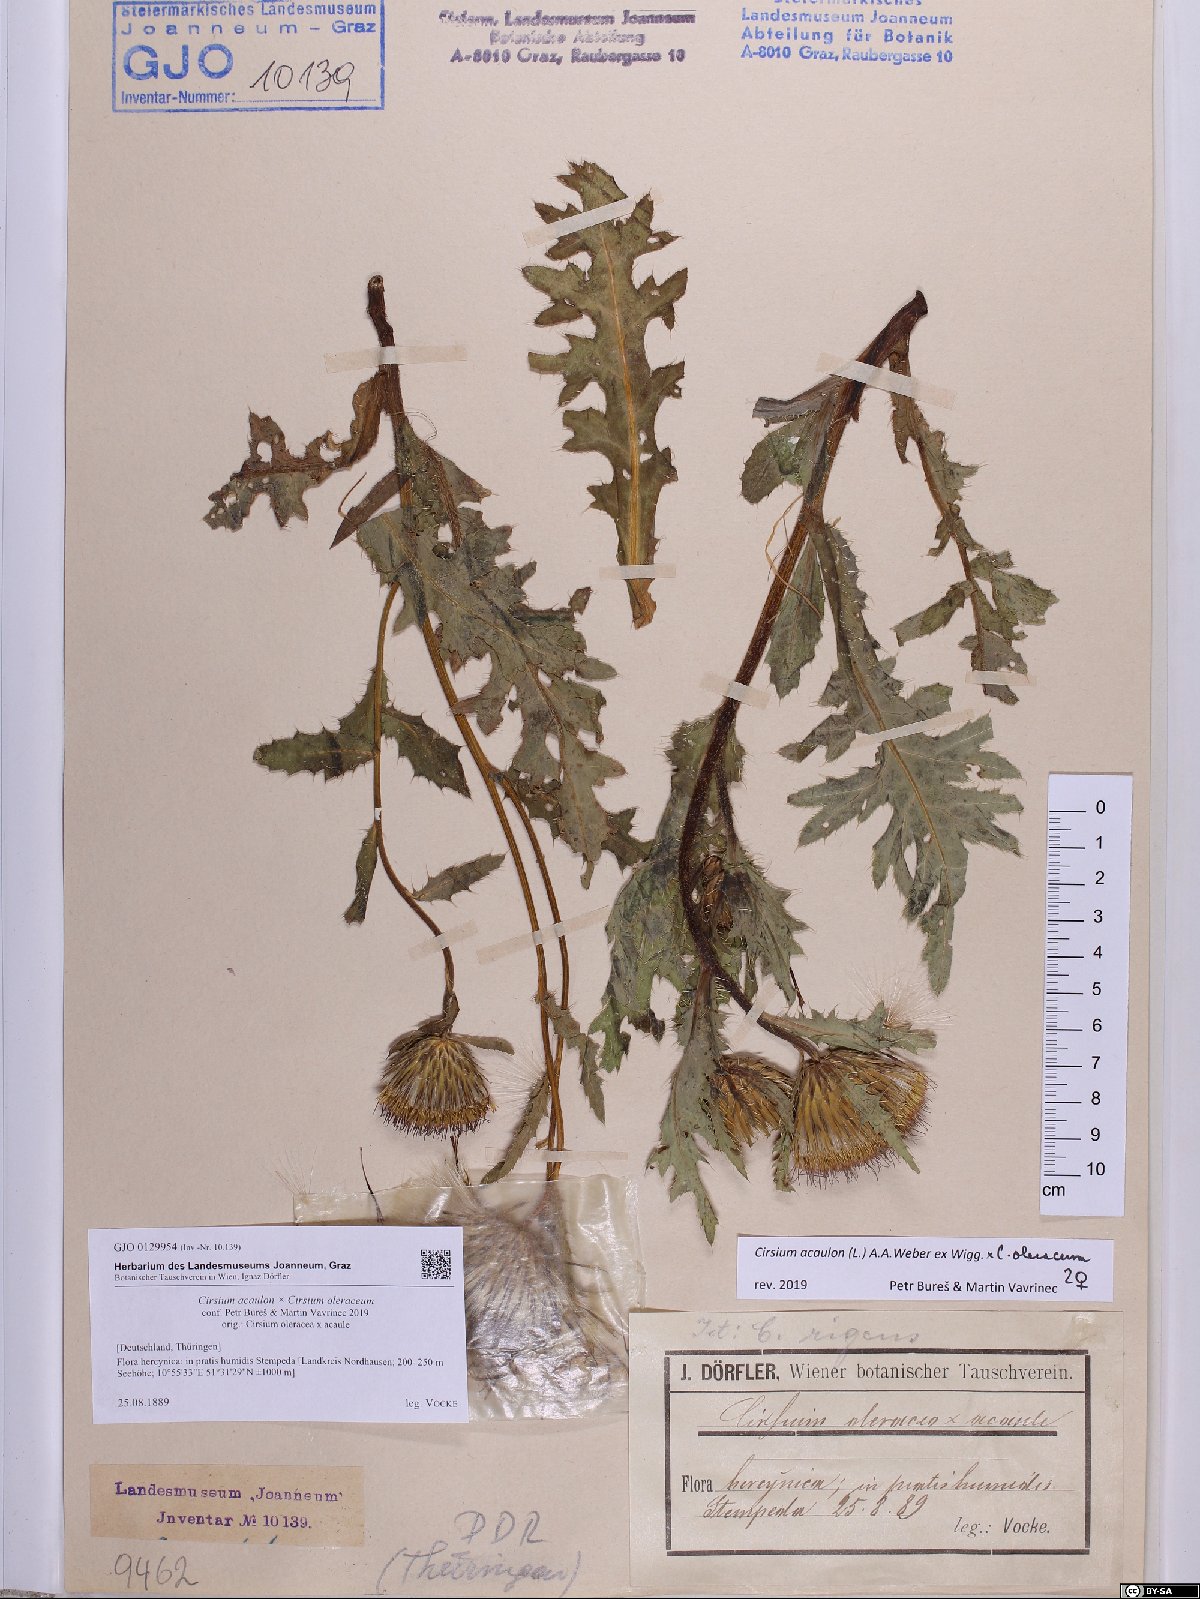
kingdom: Plantae
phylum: Tracheophyta
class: Magnoliopsida
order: Asterales
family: Asteraceae
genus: Cirsium
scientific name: Cirsium
